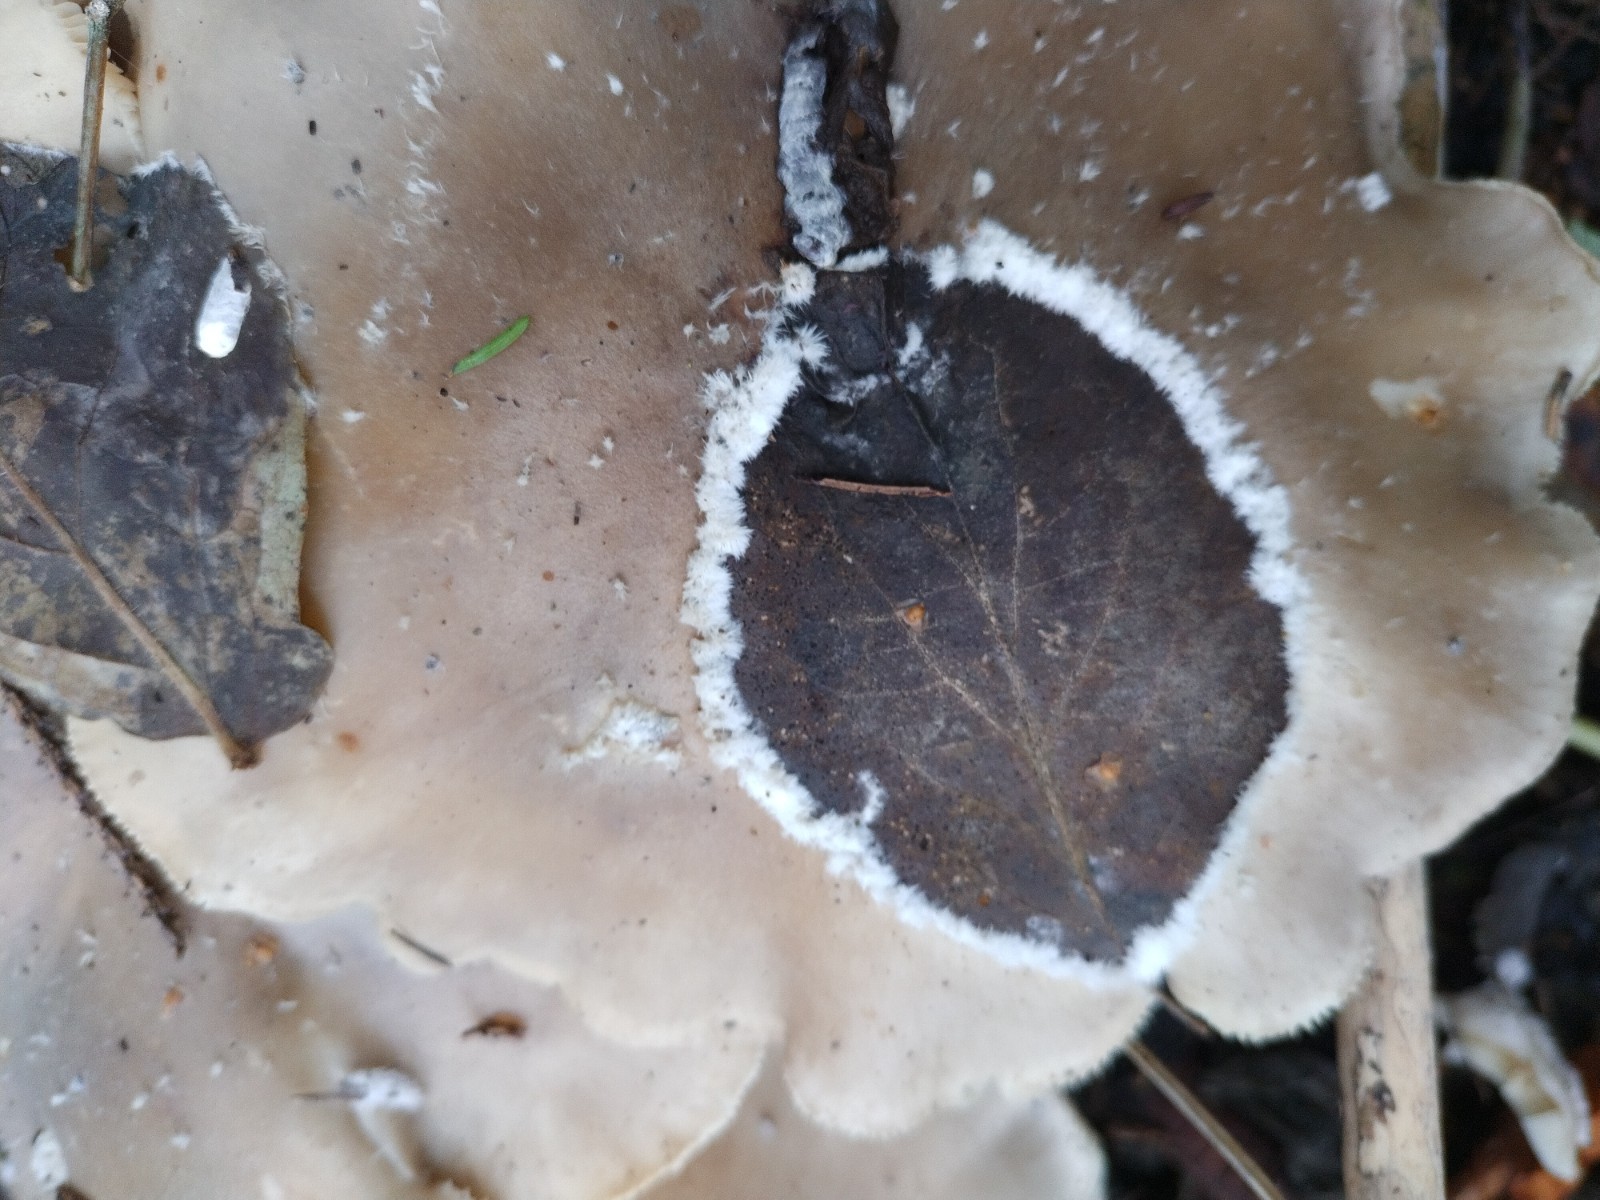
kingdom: Fungi
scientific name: Fungi
